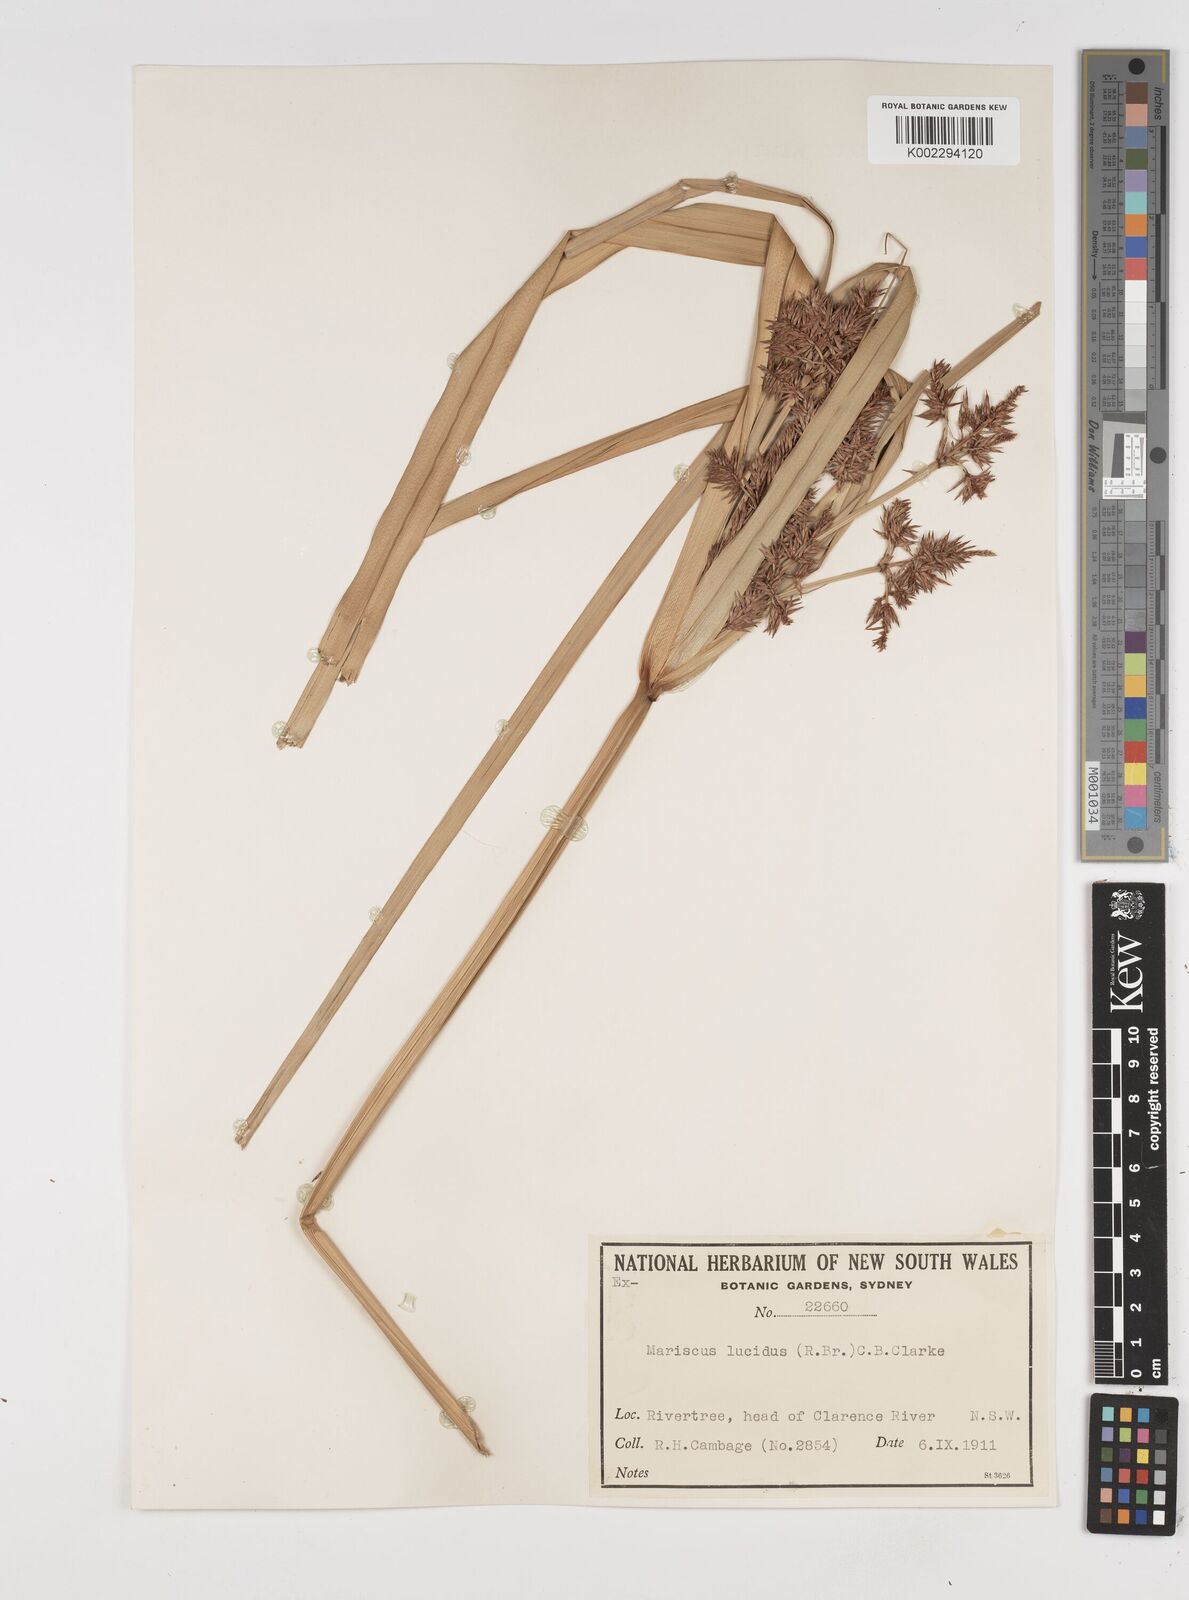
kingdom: Plantae
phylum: Tracheophyta
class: Liliopsida
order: Poales
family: Cyperaceae
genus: Cyperus
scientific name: Cyperus lucidus
